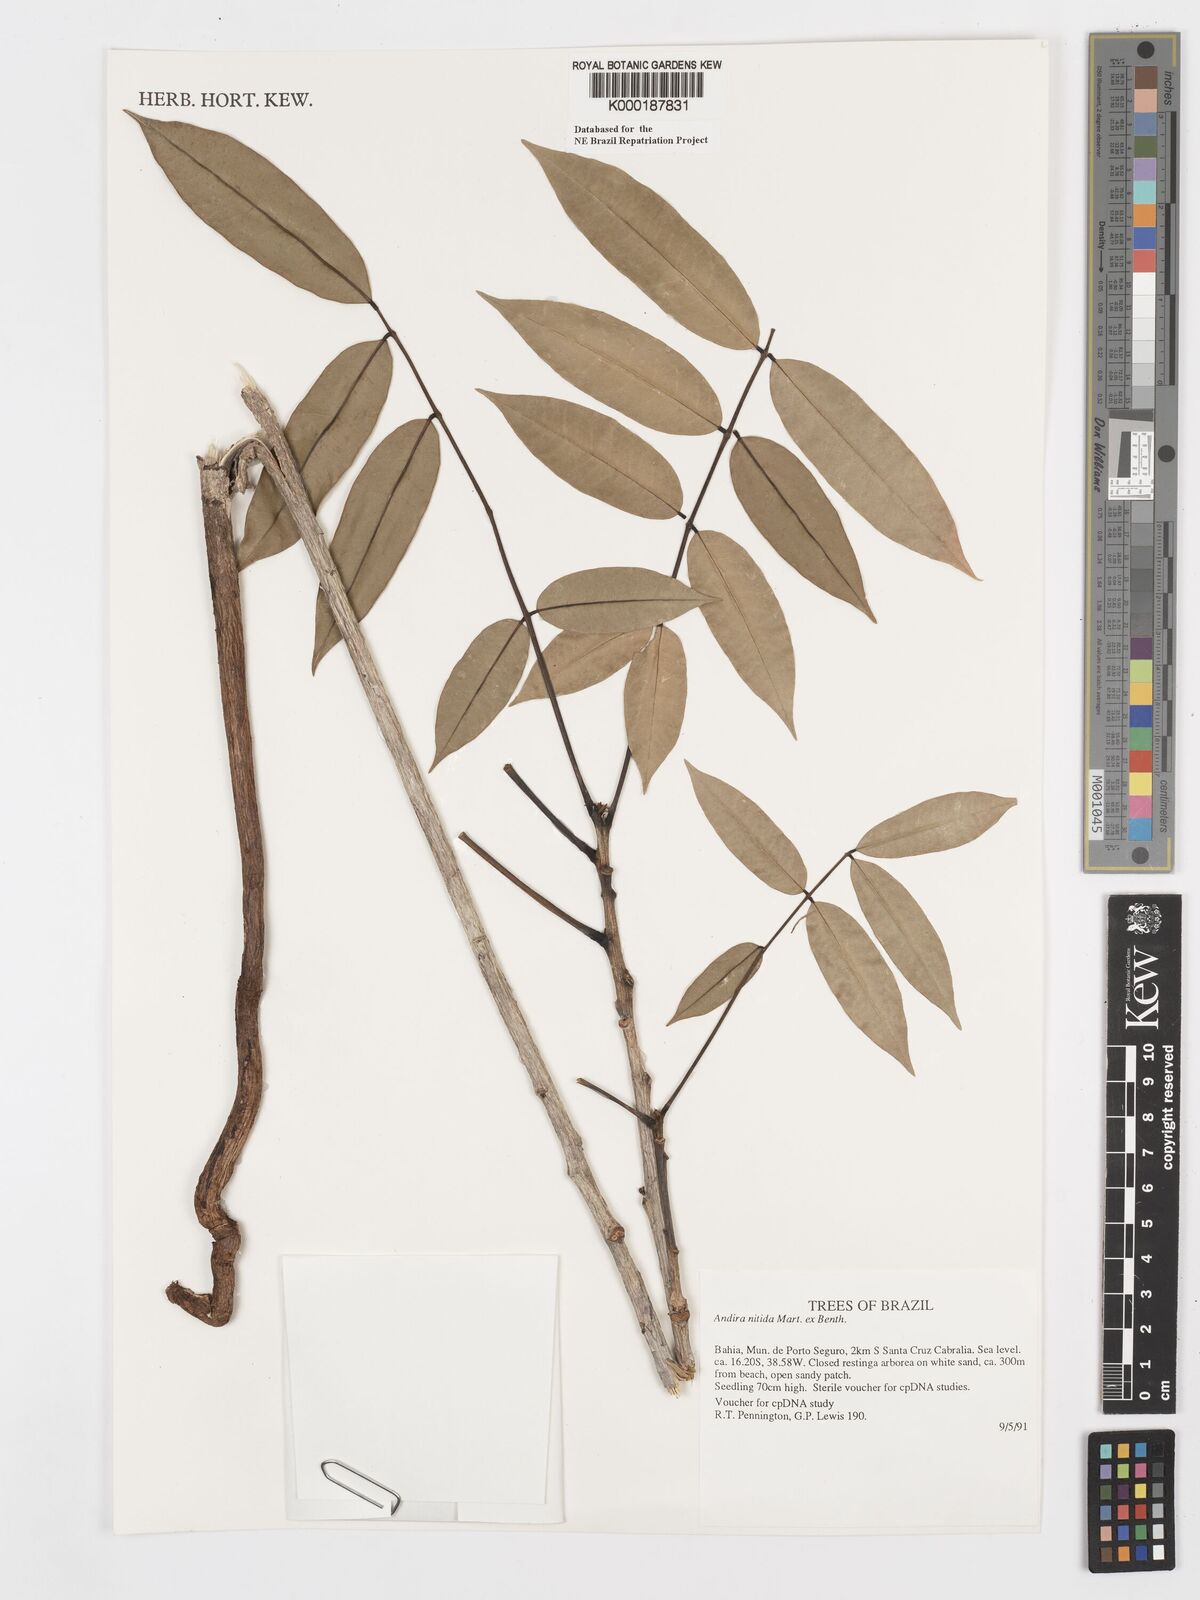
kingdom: Plantae
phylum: Tracheophyta
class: Magnoliopsida
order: Fabales
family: Fabaceae
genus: Andira
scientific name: Andira nitida
